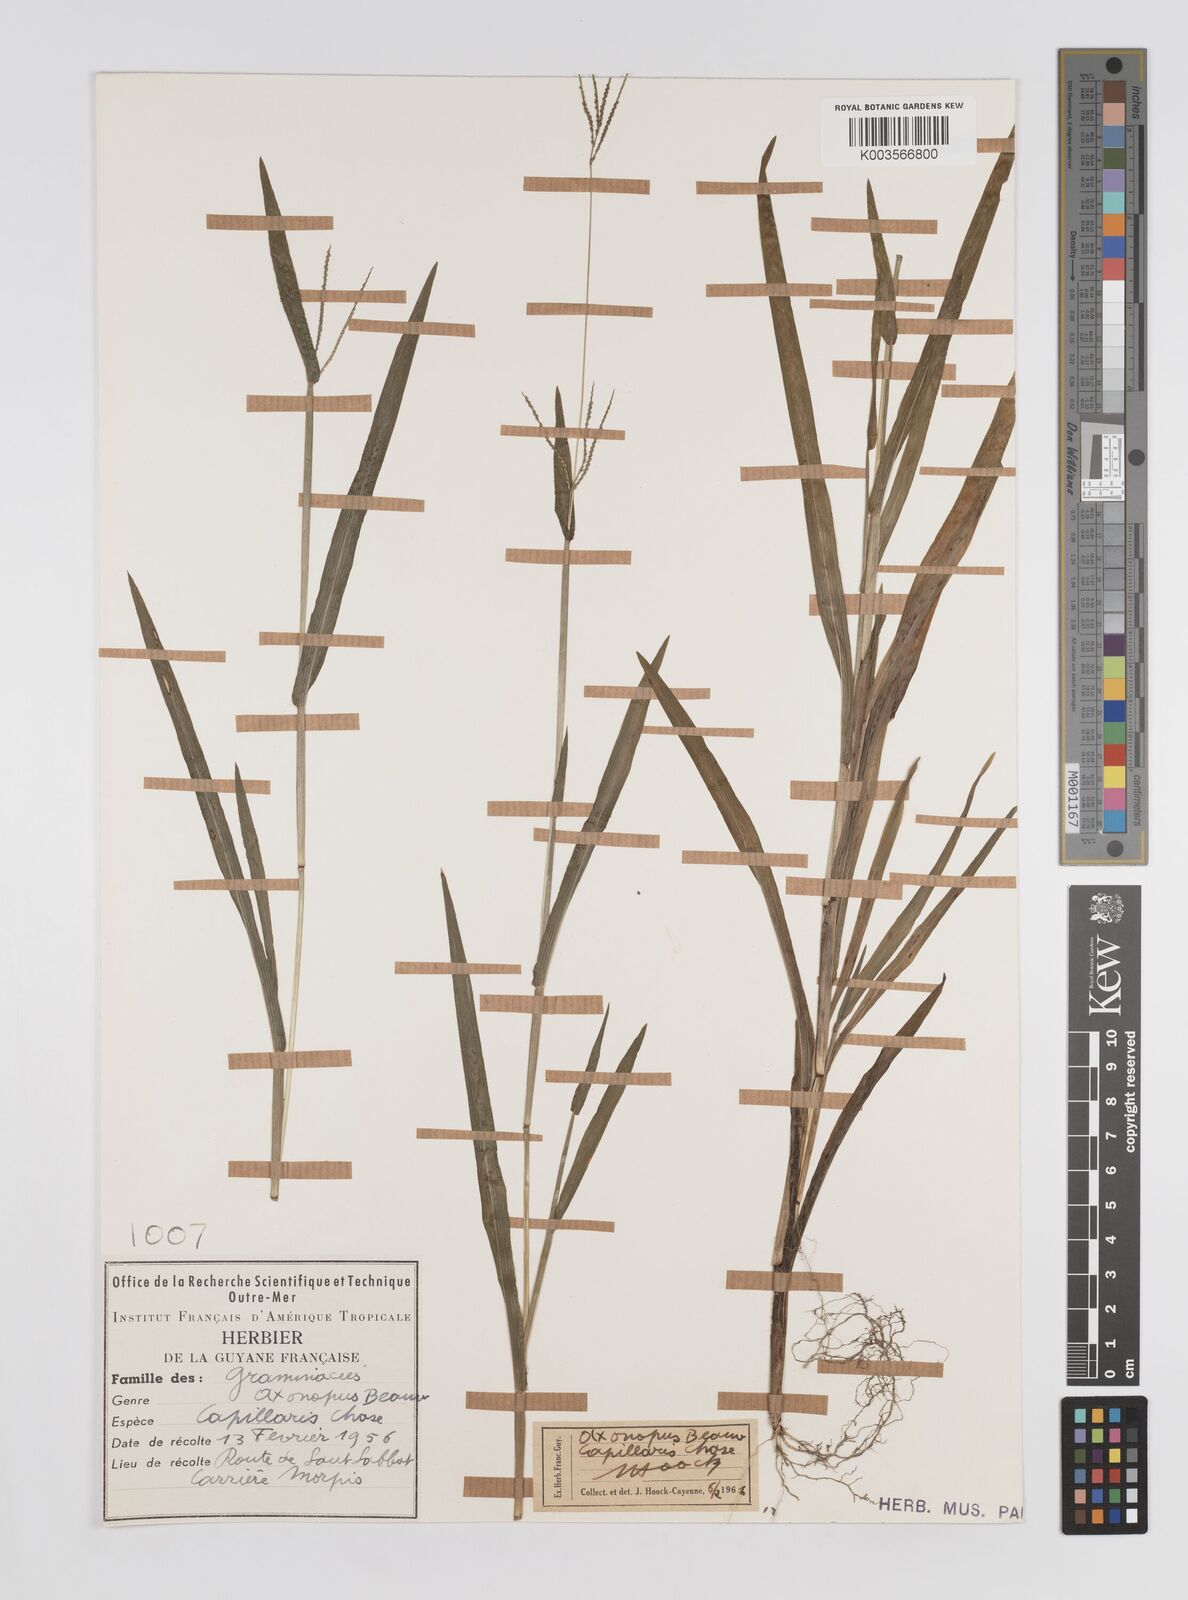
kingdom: Plantae
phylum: Tracheophyta
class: Liliopsida
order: Poales
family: Poaceae
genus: Axonopus
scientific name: Axonopus capillaris
